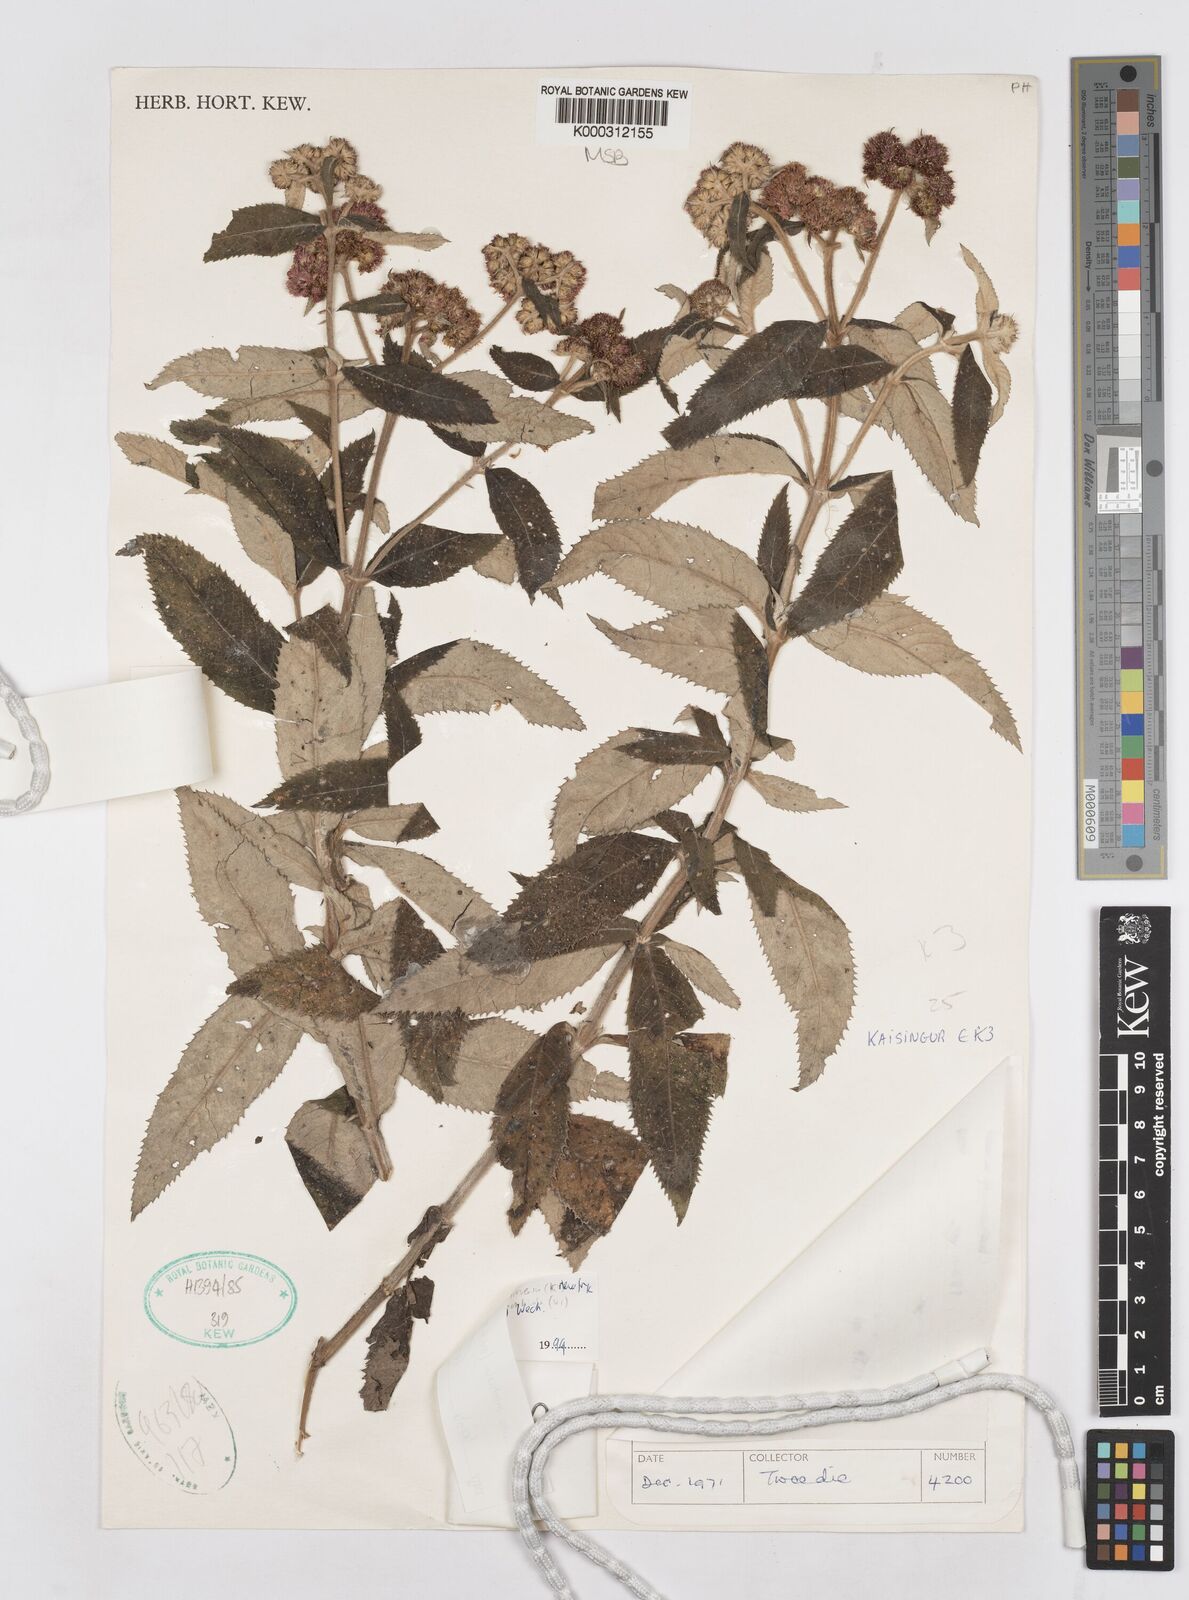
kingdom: Plantae
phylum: Tracheophyta
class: Magnoliopsida
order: Asterales
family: Asteraceae
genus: Bothriocline
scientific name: Bothriocline monticola
